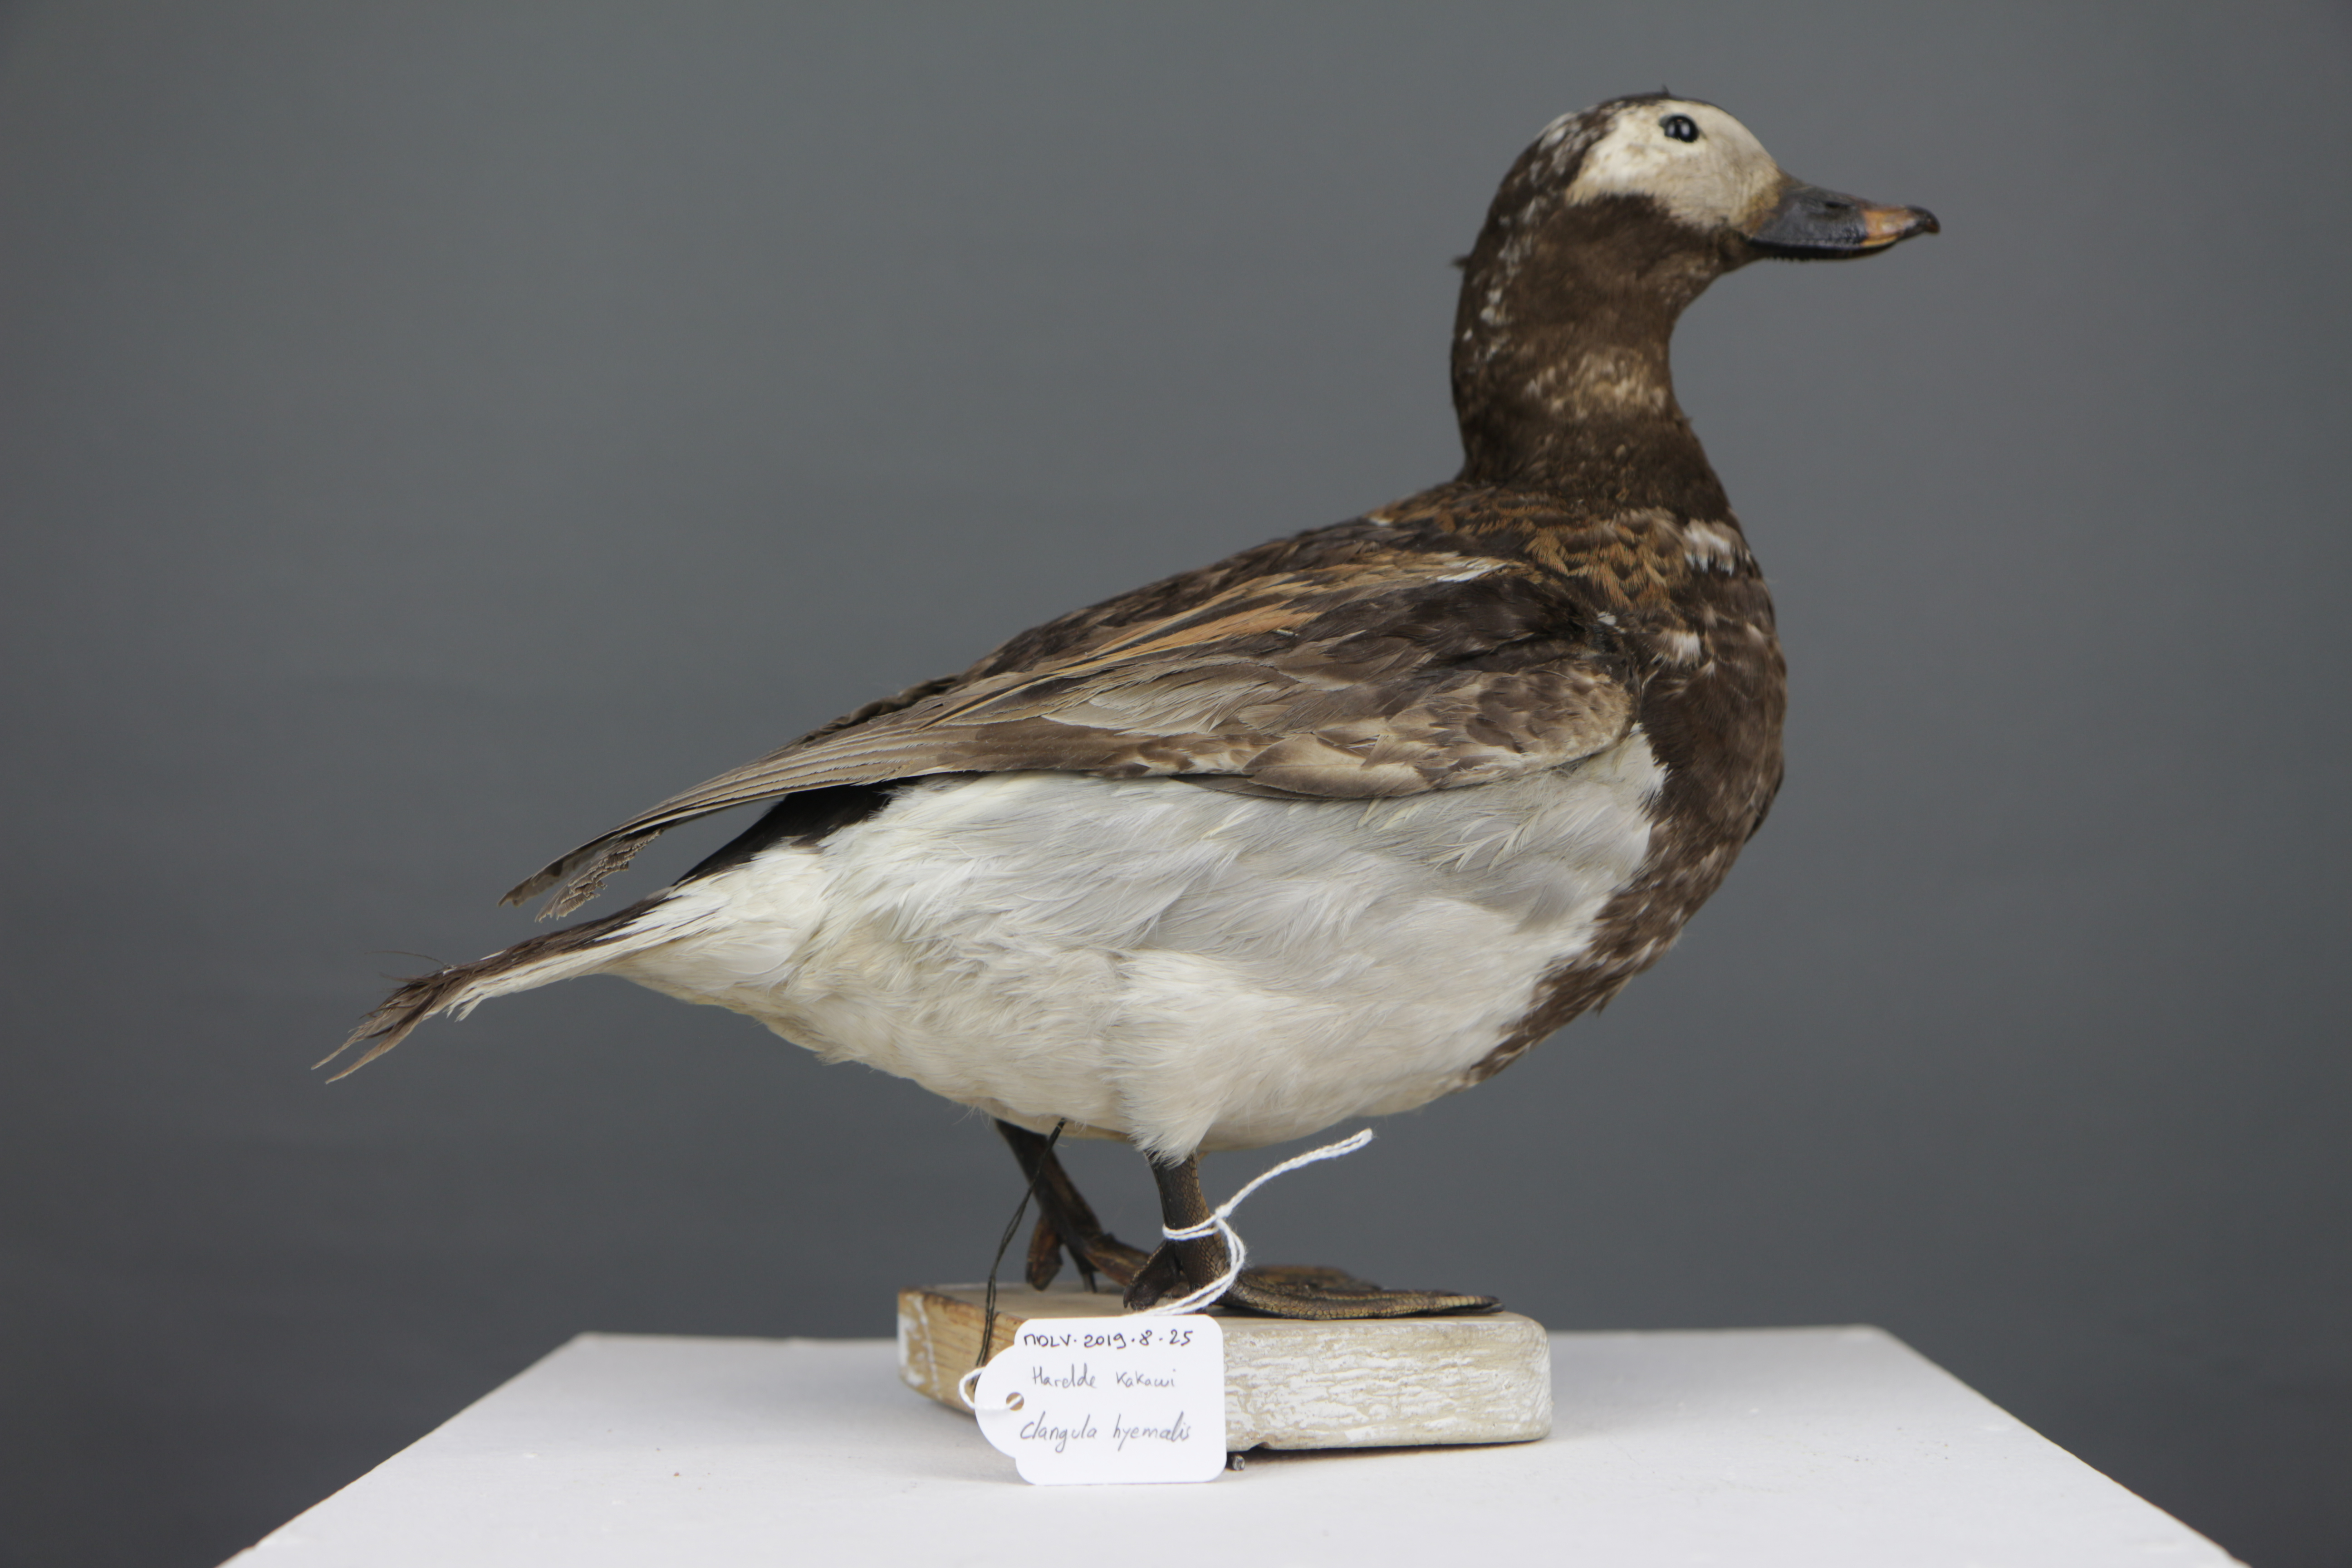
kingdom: Animalia
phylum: Chordata
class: Aves
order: Anseriformes
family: Anatidae
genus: Clangula
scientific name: Clangula hyemalis
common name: Long-tailed duck
